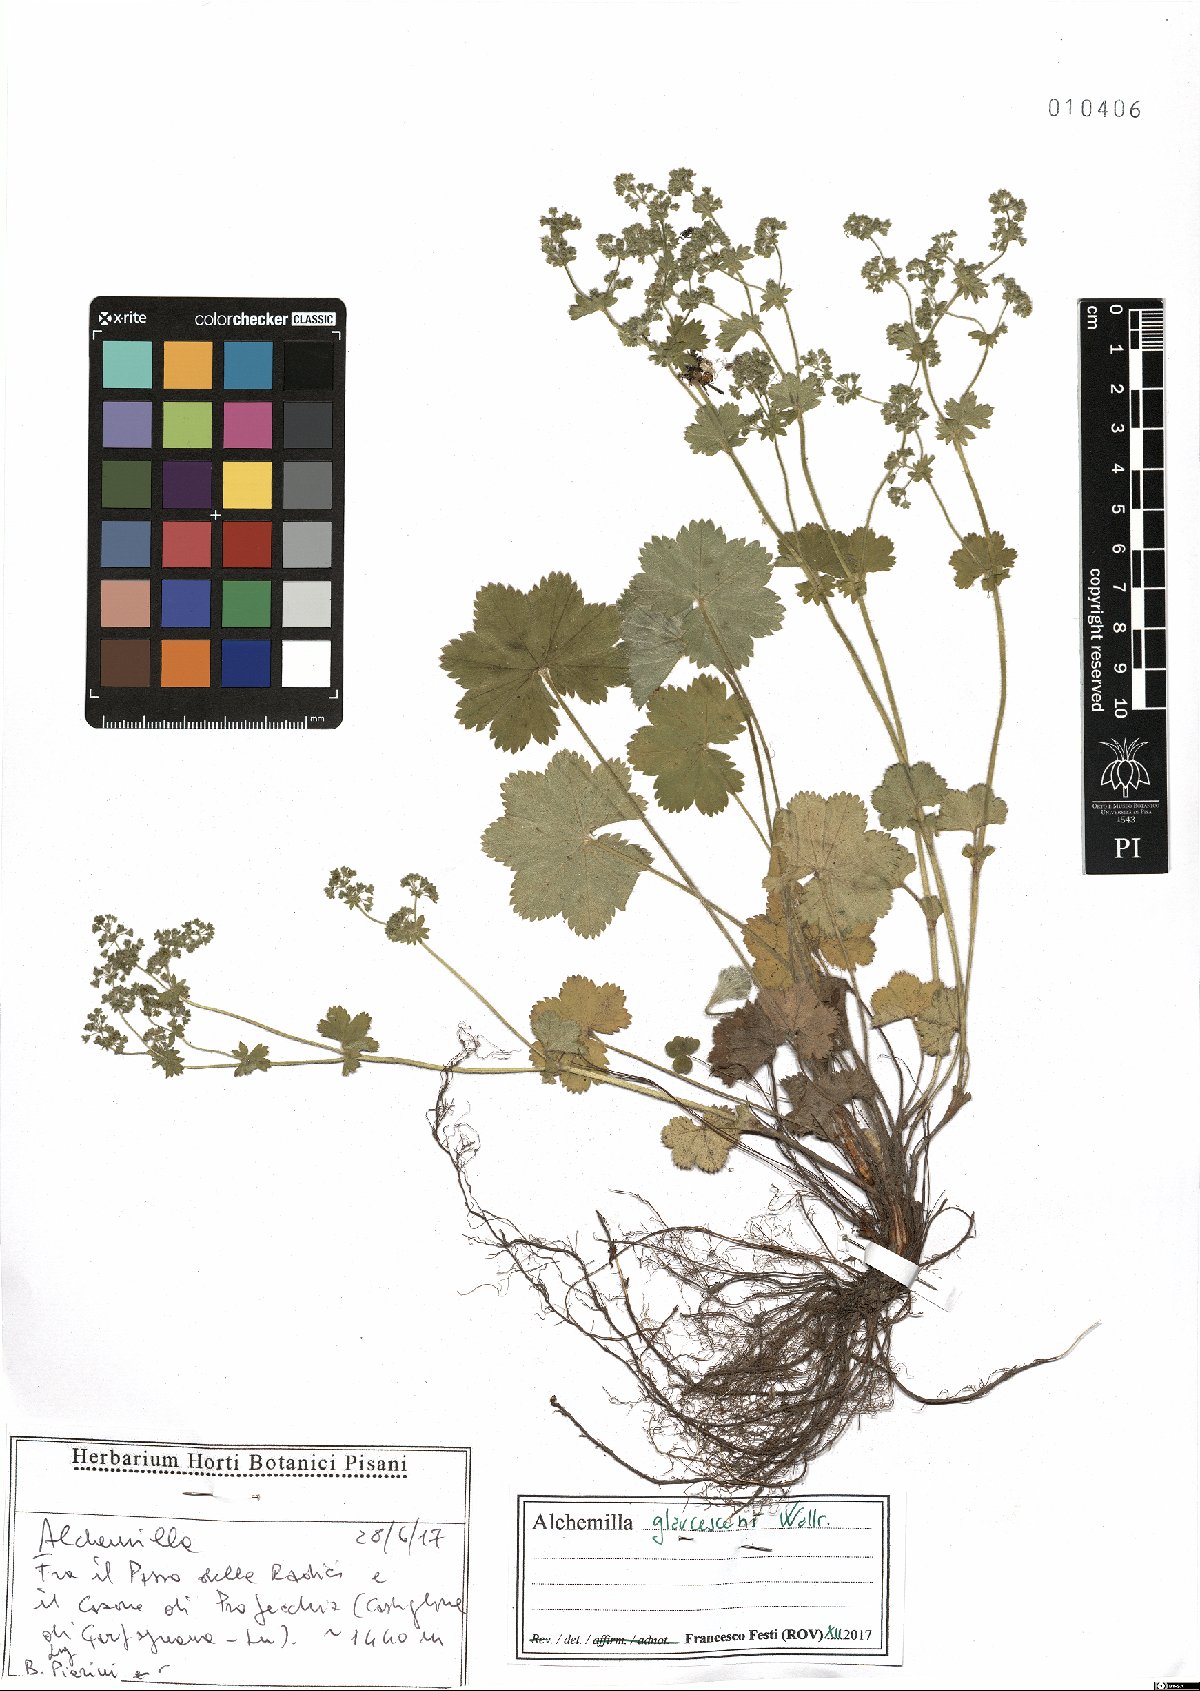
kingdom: Plantae
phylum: Tracheophyta
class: Magnoliopsida
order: Rosales
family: Rosaceae
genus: Alchemilla
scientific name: Alchemilla glaucescens
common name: Silky lady's mantle
